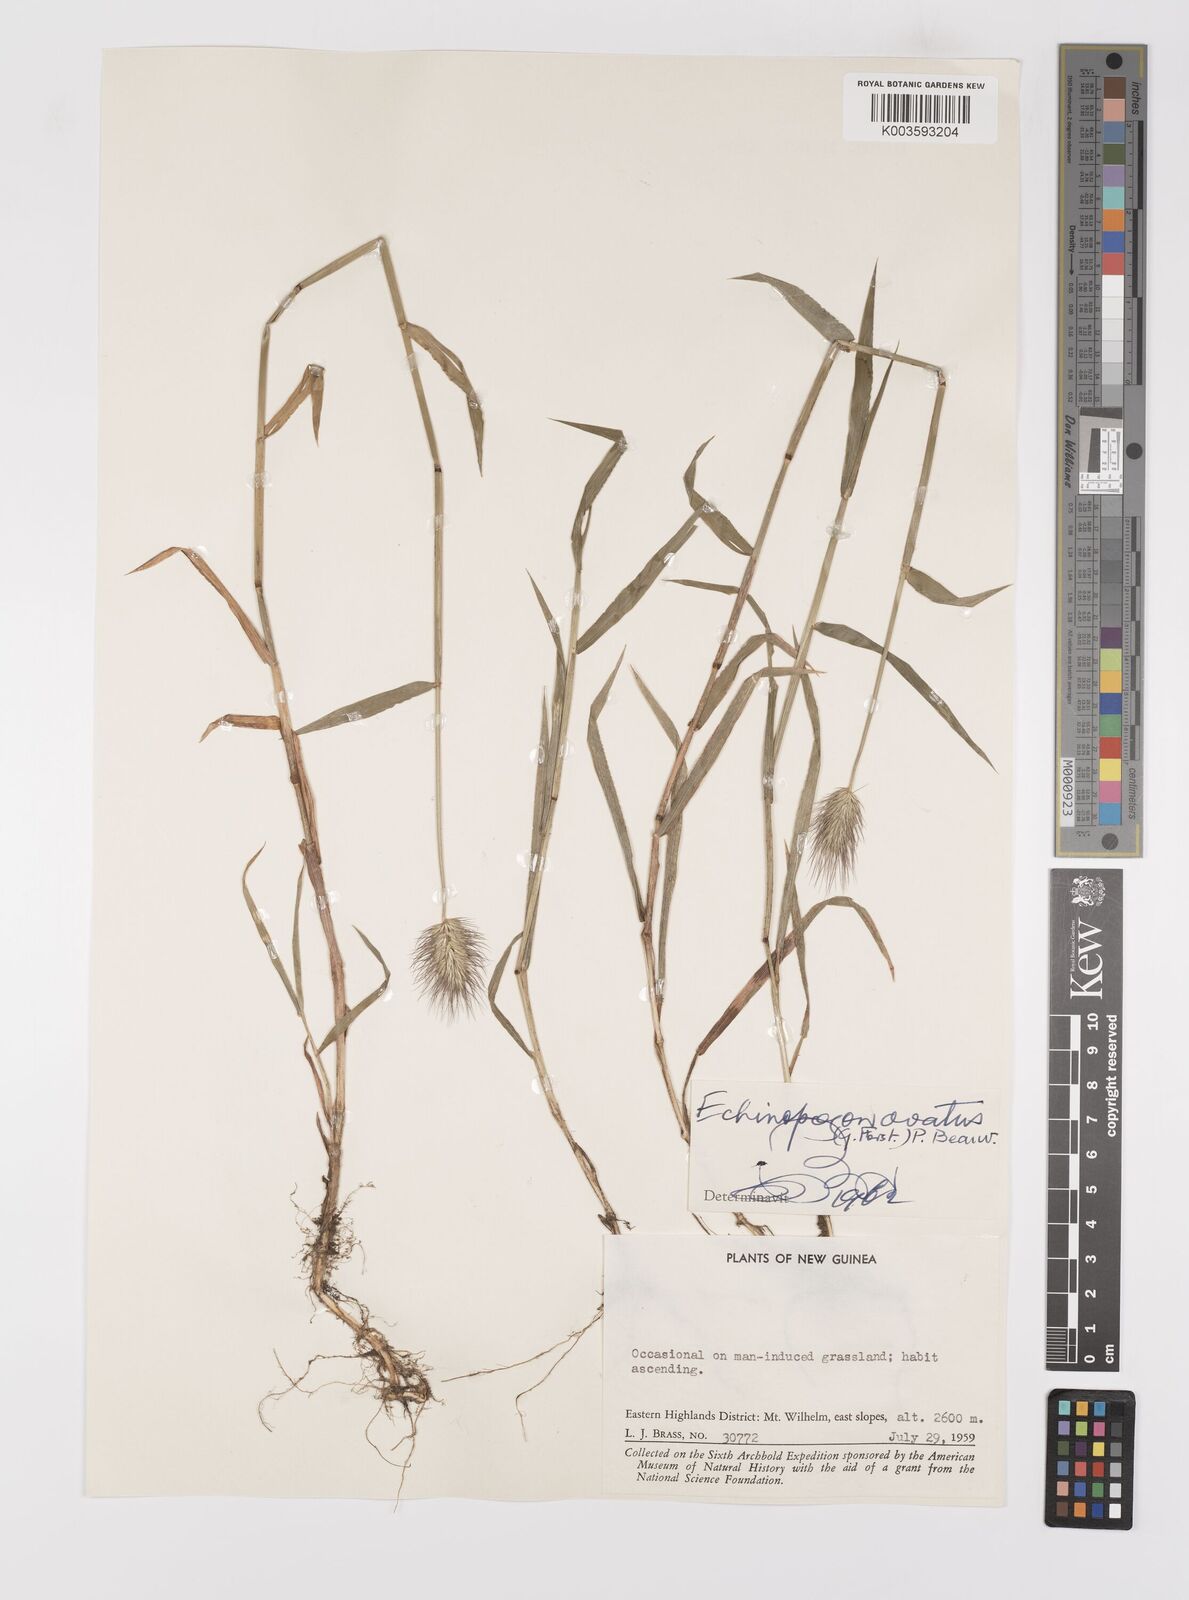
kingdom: Plantae
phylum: Tracheophyta
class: Liliopsida
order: Poales
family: Poaceae
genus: Echinopogon
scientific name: Echinopogon ovatus
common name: Hedgehog-grass
